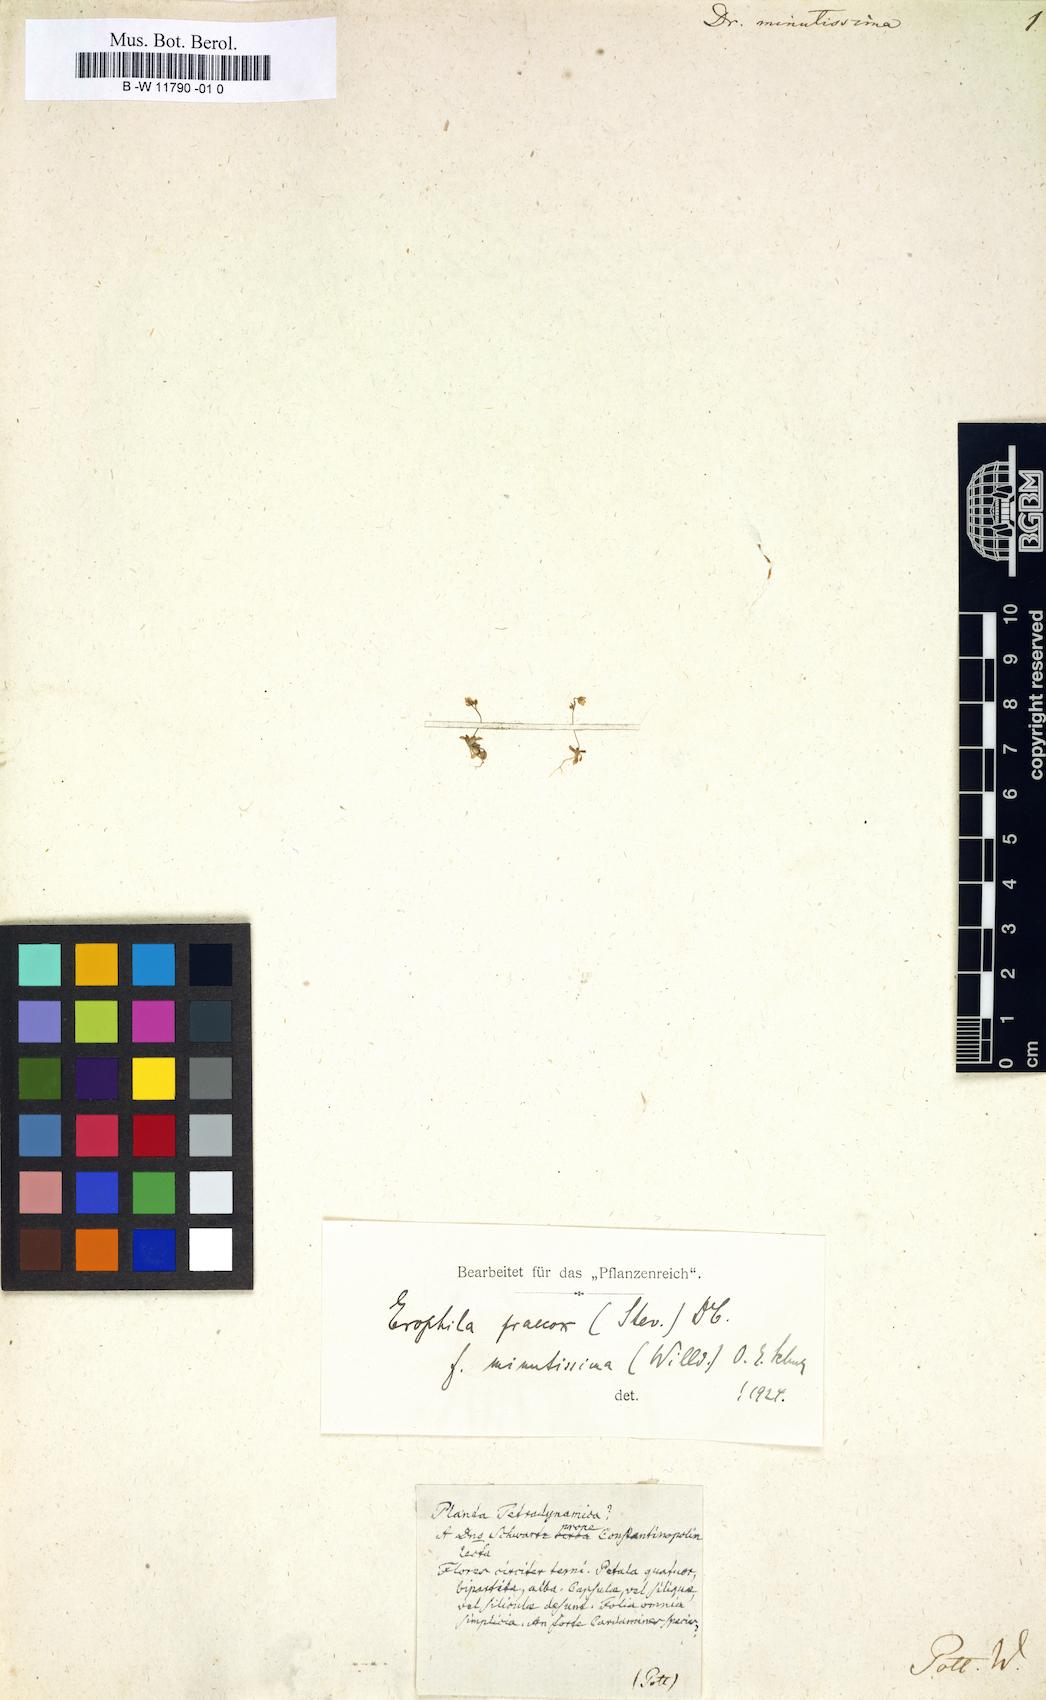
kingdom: Plantae
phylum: Tracheophyta
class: Magnoliopsida
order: Brassicales
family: Brassicaceae
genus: Draba
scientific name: Draba verna
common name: Spring draba
